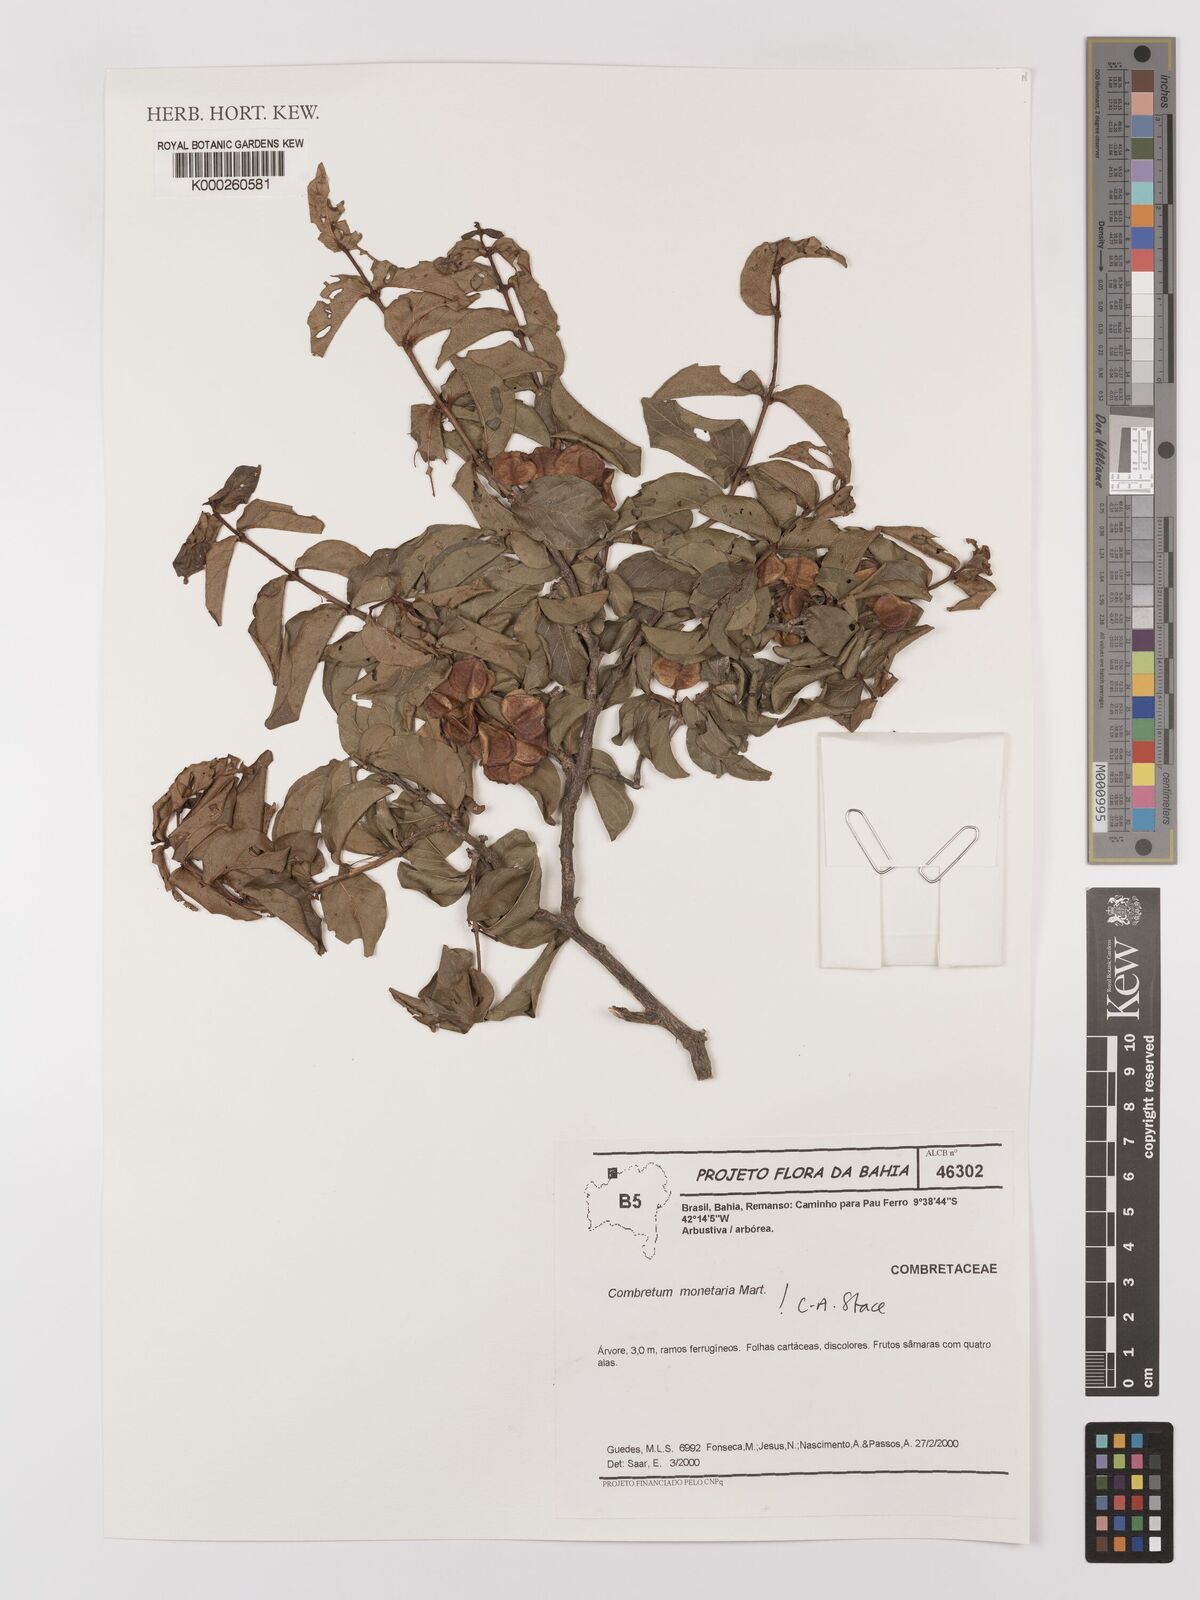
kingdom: Plantae
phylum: Tracheophyta
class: Magnoliopsida
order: Myrtales
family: Combretaceae
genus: Combretum
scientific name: Combretum monetaria
